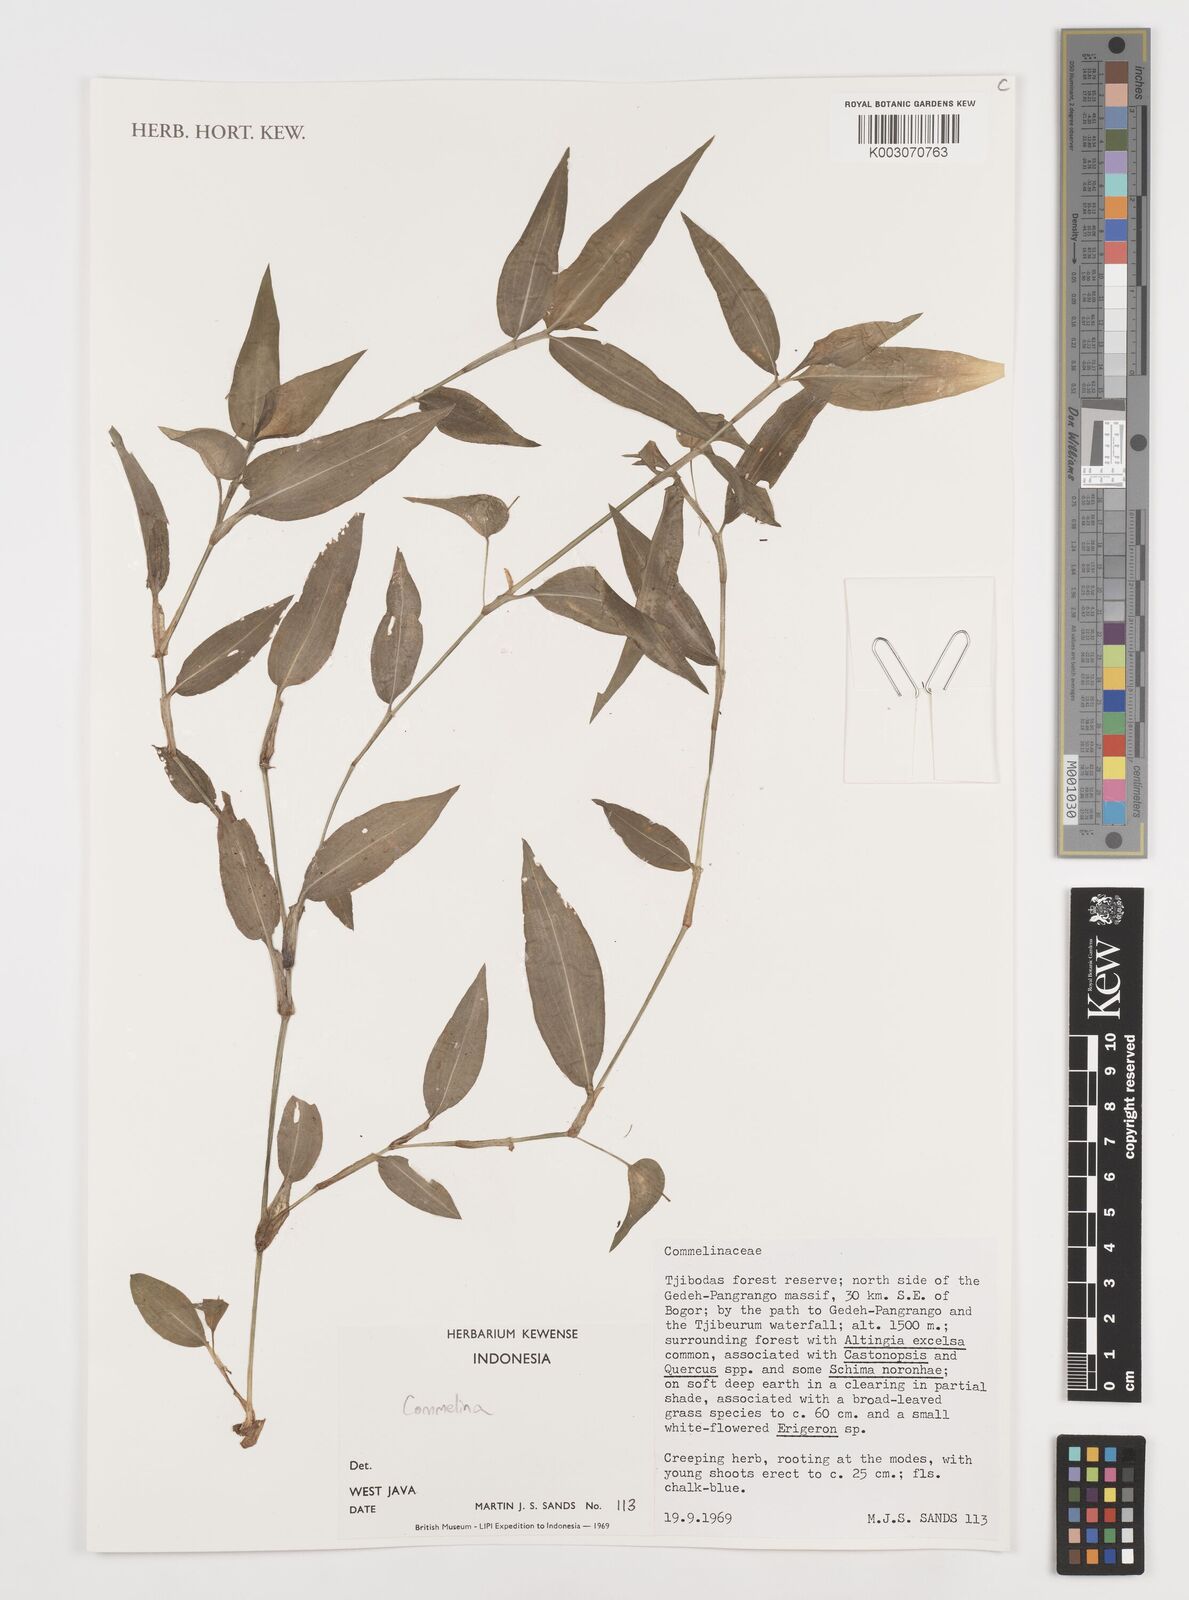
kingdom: Plantae
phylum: Tracheophyta
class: Liliopsida
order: Commelinales
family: Commelinaceae
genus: Commelina
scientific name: Commelina
